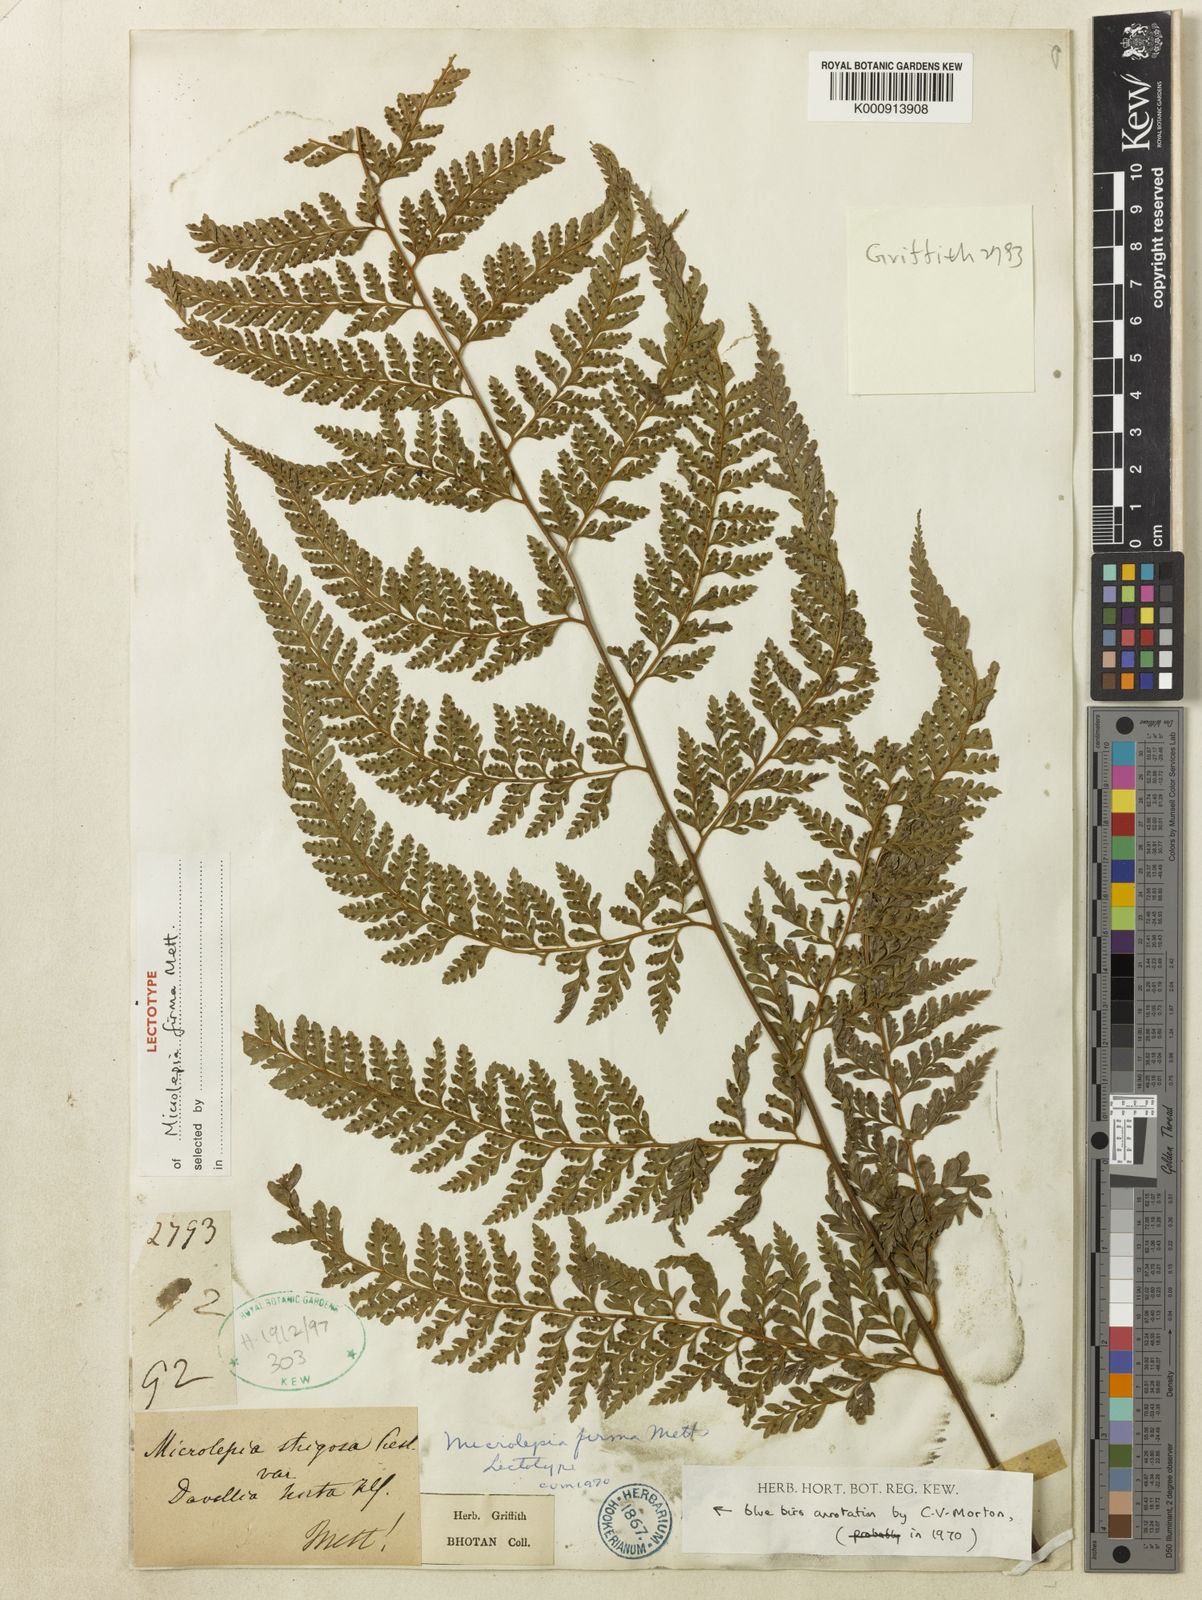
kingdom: Plantae
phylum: Tracheophyta
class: Polypodiopsida
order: Polypodiales
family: Dennstaedtiaceae
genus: Microlepia
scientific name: Microlepia firma
